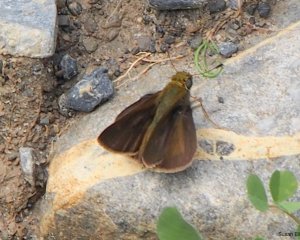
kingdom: Animalia
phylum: Arthropoda
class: Insecta
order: Lepidoptera
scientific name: Lepidoptera
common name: Butterflies
